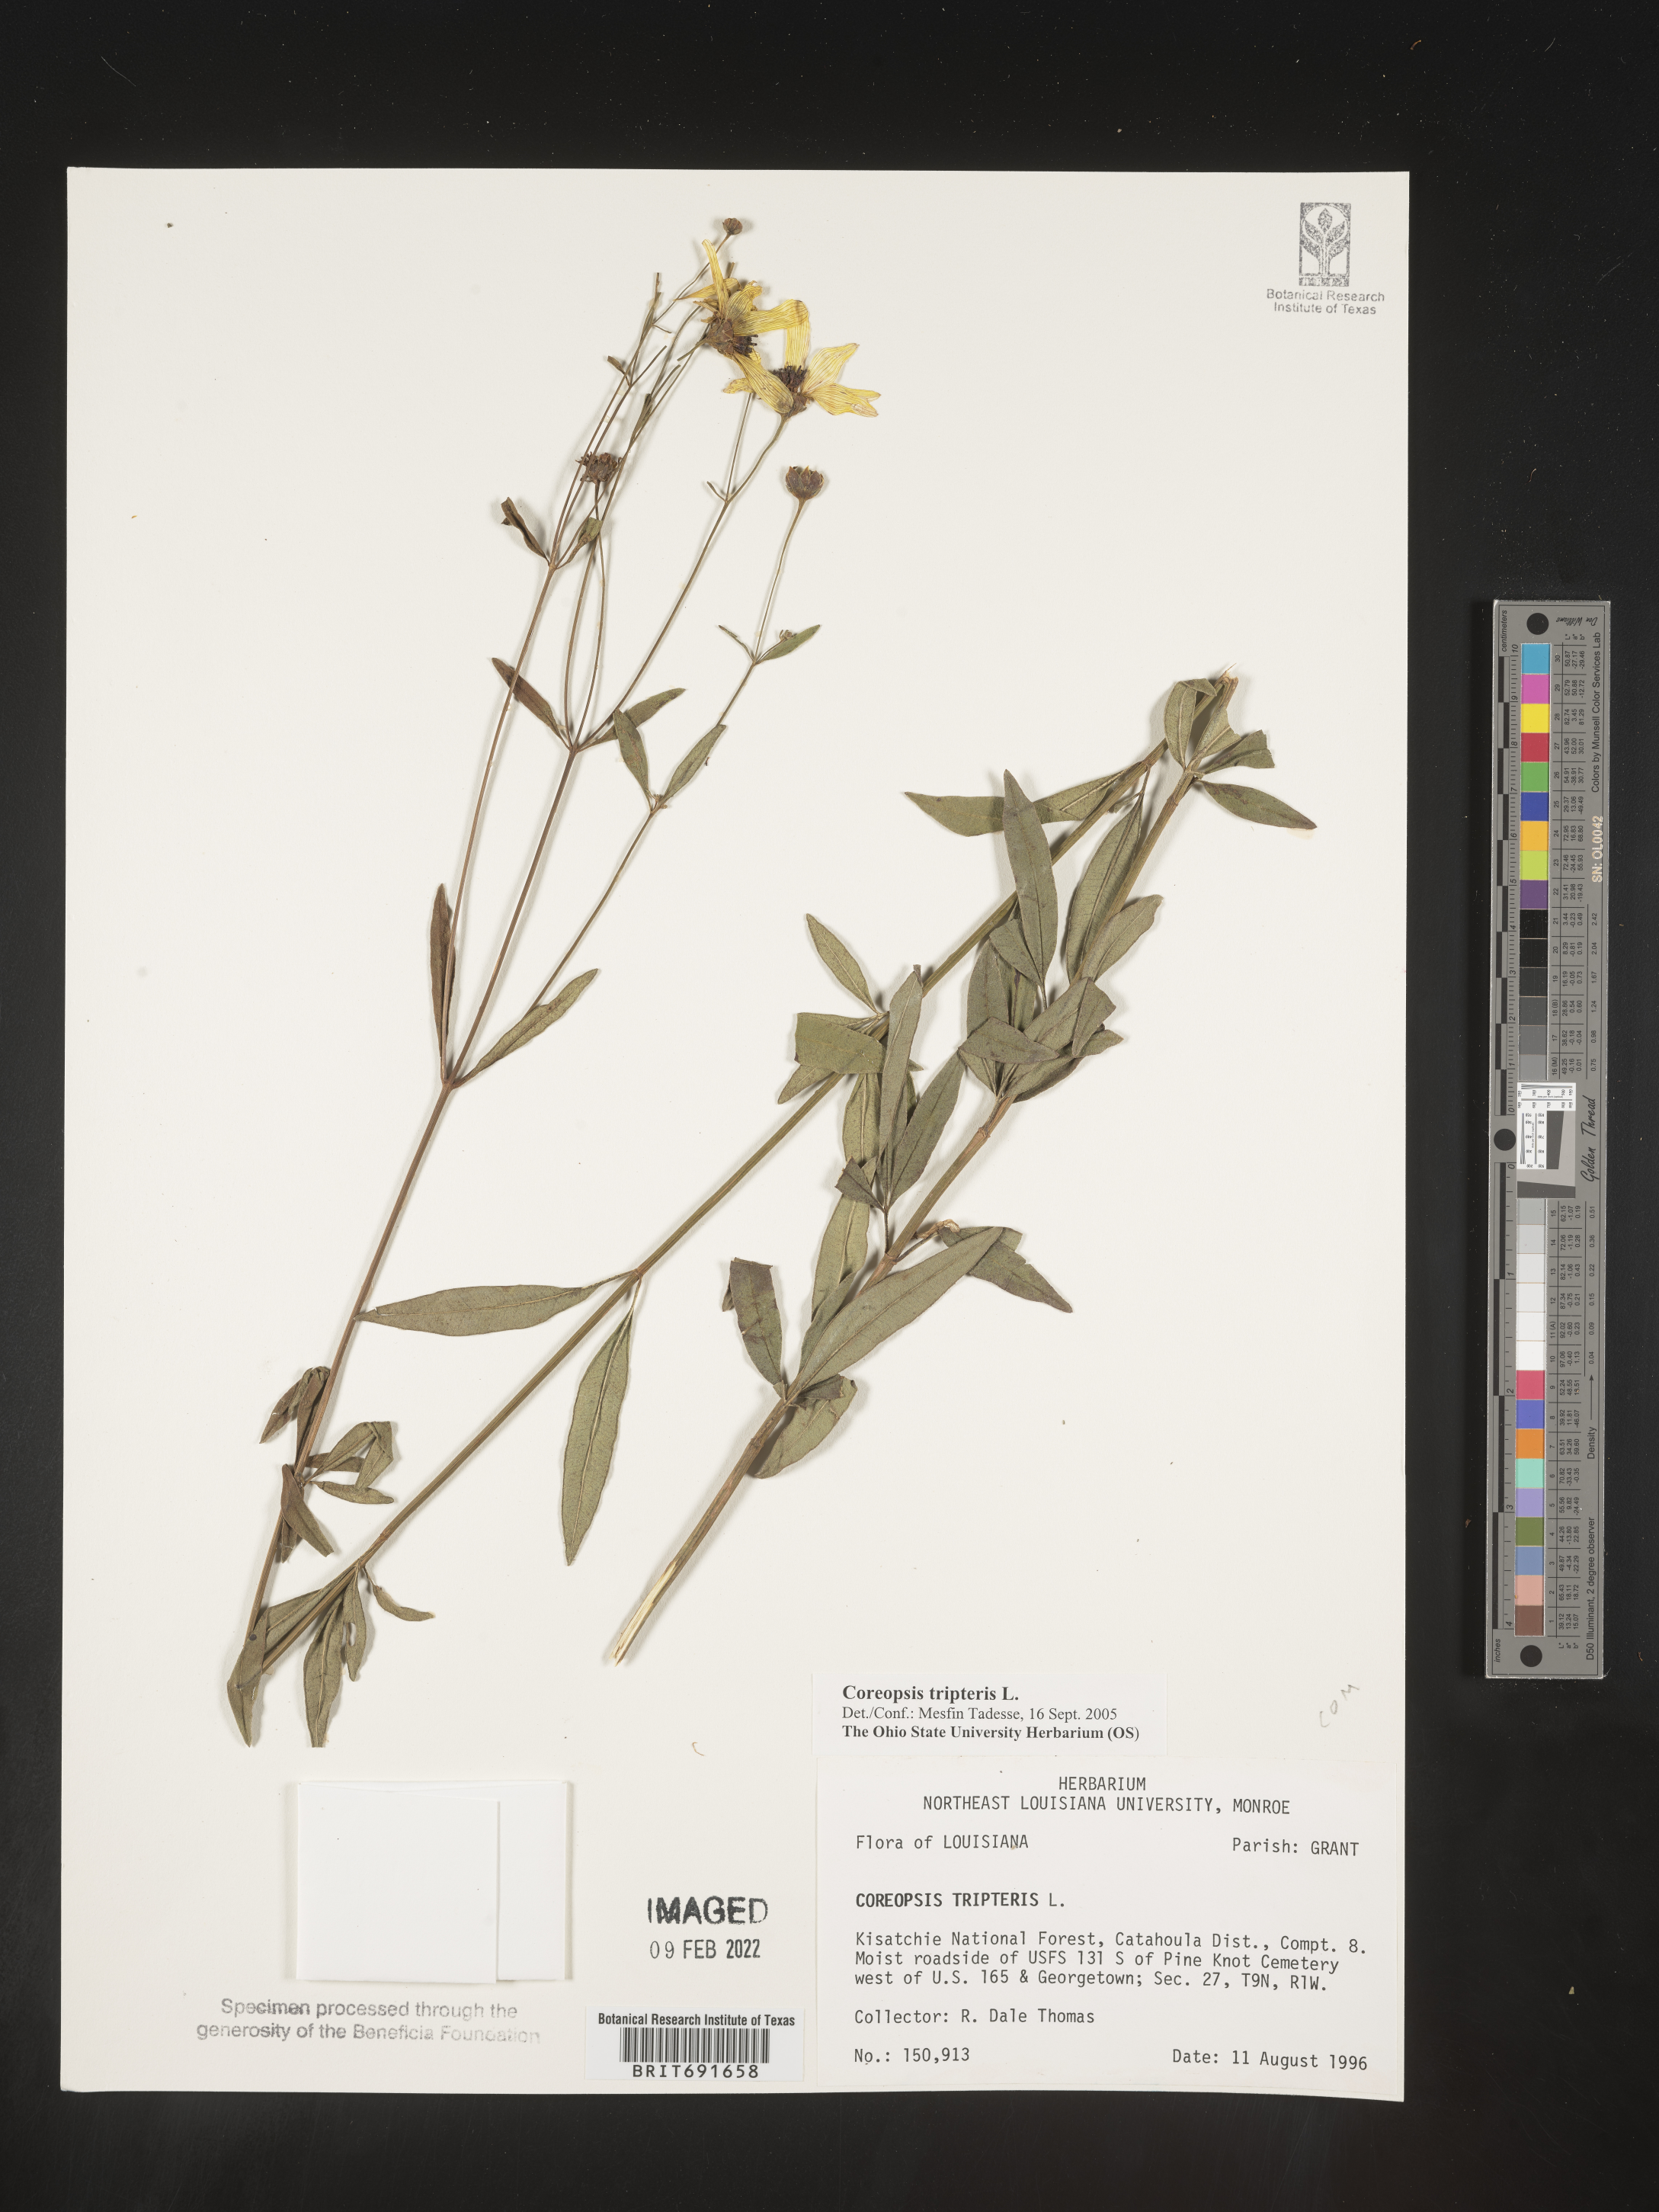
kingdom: Plantae
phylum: Tracheophyta
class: Magnoliopsida
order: Asterales
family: Asteraceae
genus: Coreopsis
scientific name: Coreopsis tripteris
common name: Tall coreopsis
